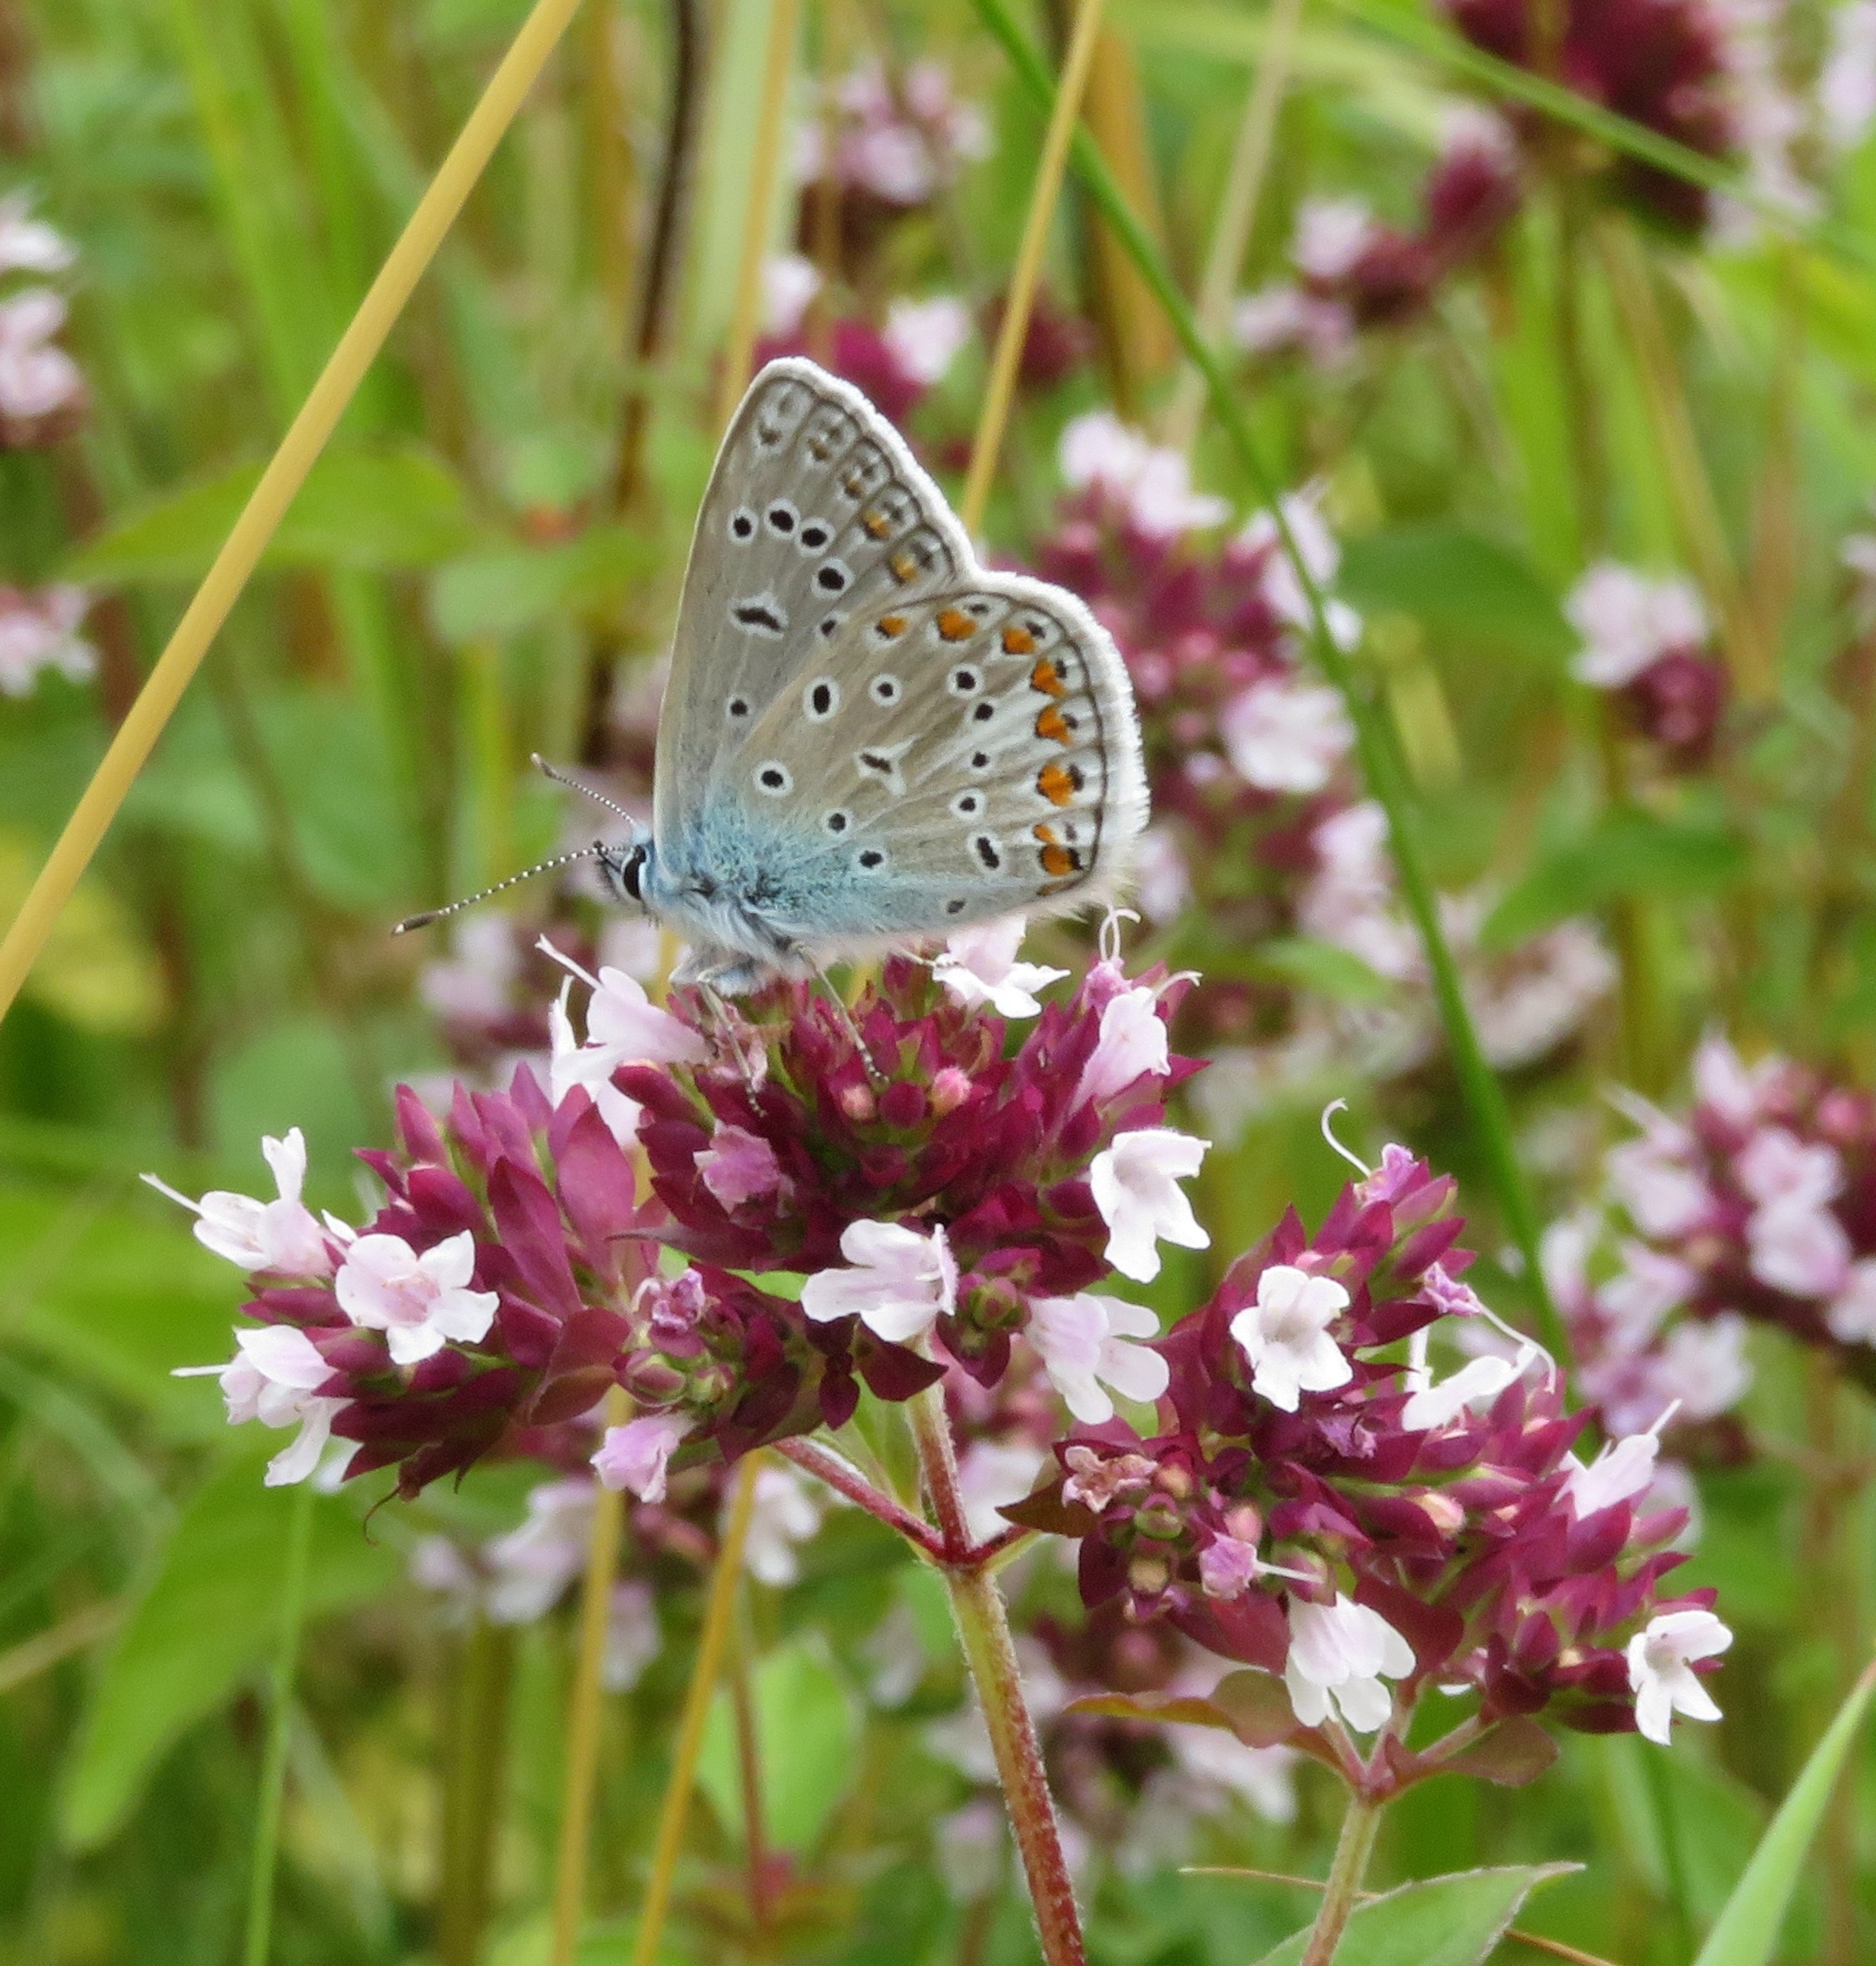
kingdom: Animalia
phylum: Arthropoda
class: Insecta
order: Lepidoptera
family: Lycaenidae
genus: Polyommatus
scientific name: Polyommatus icarus
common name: Almindelig blåfugl
